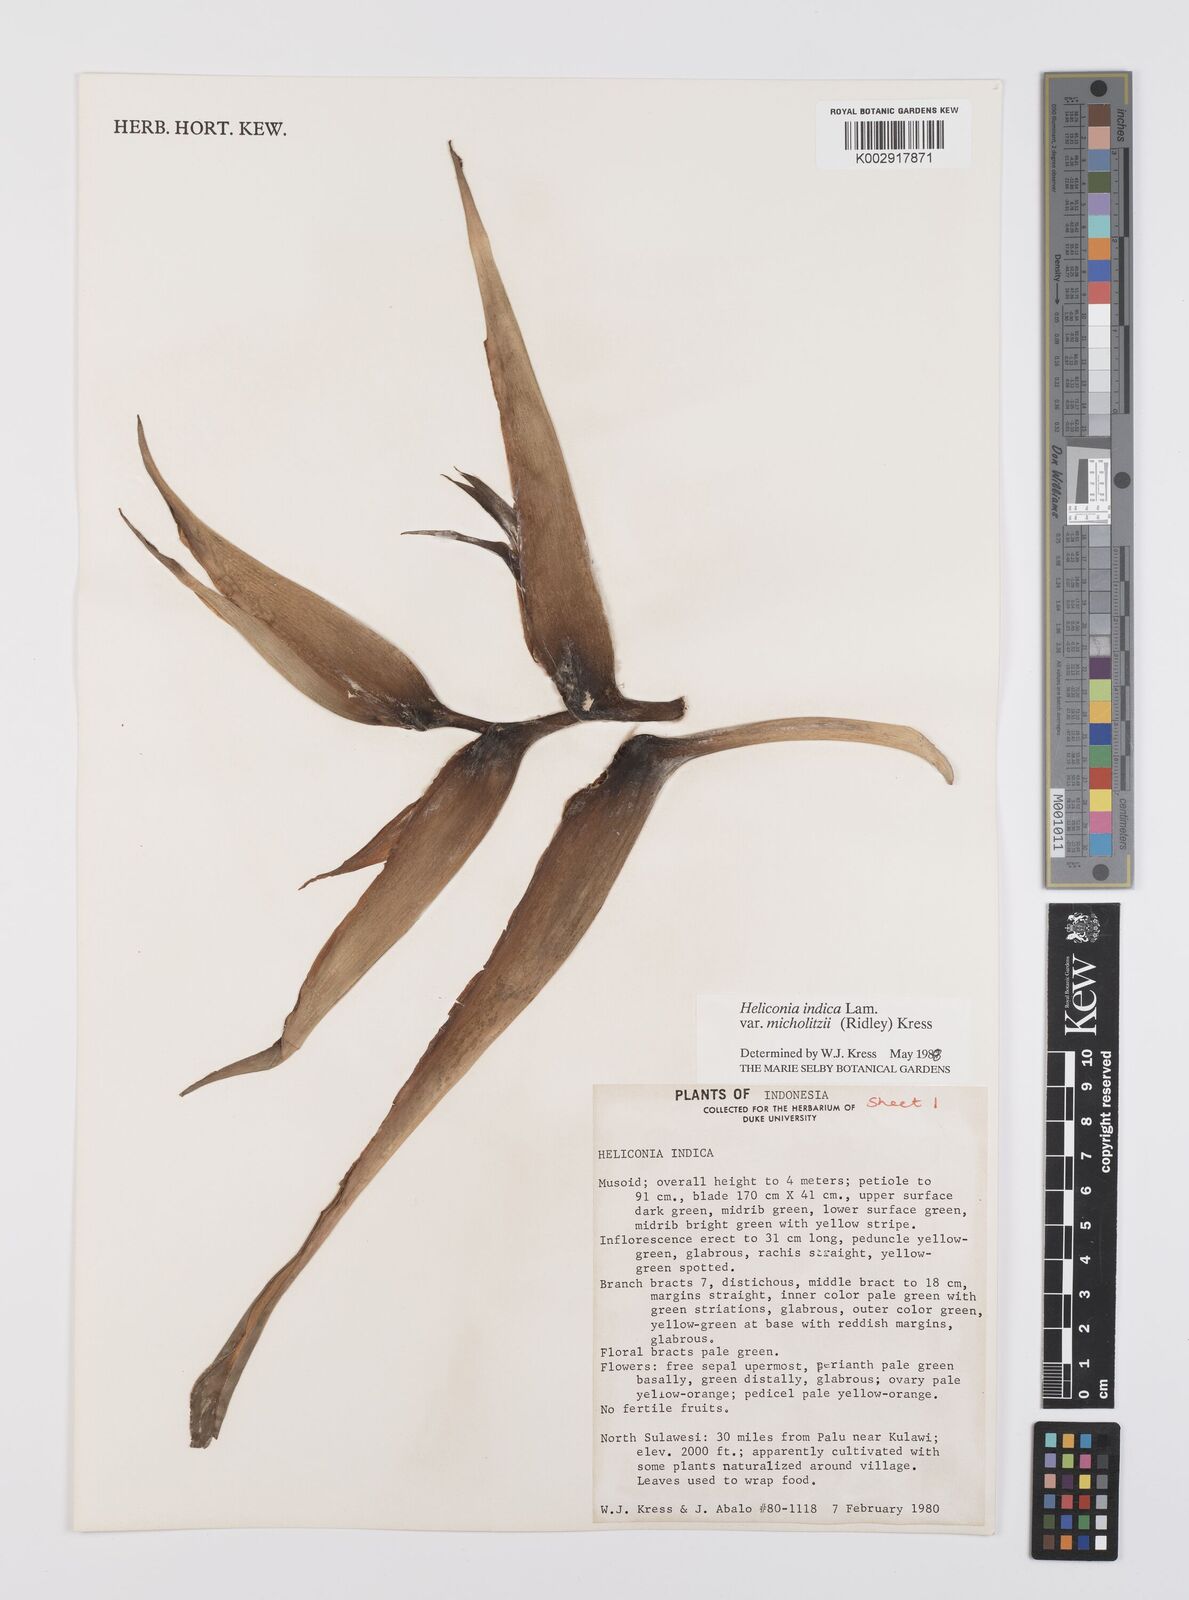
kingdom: Plantae
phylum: Tracheophyta
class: Liliopsida
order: Zingiberales
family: Heliconiaceae
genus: Heliconia
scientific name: Heliconia indica
